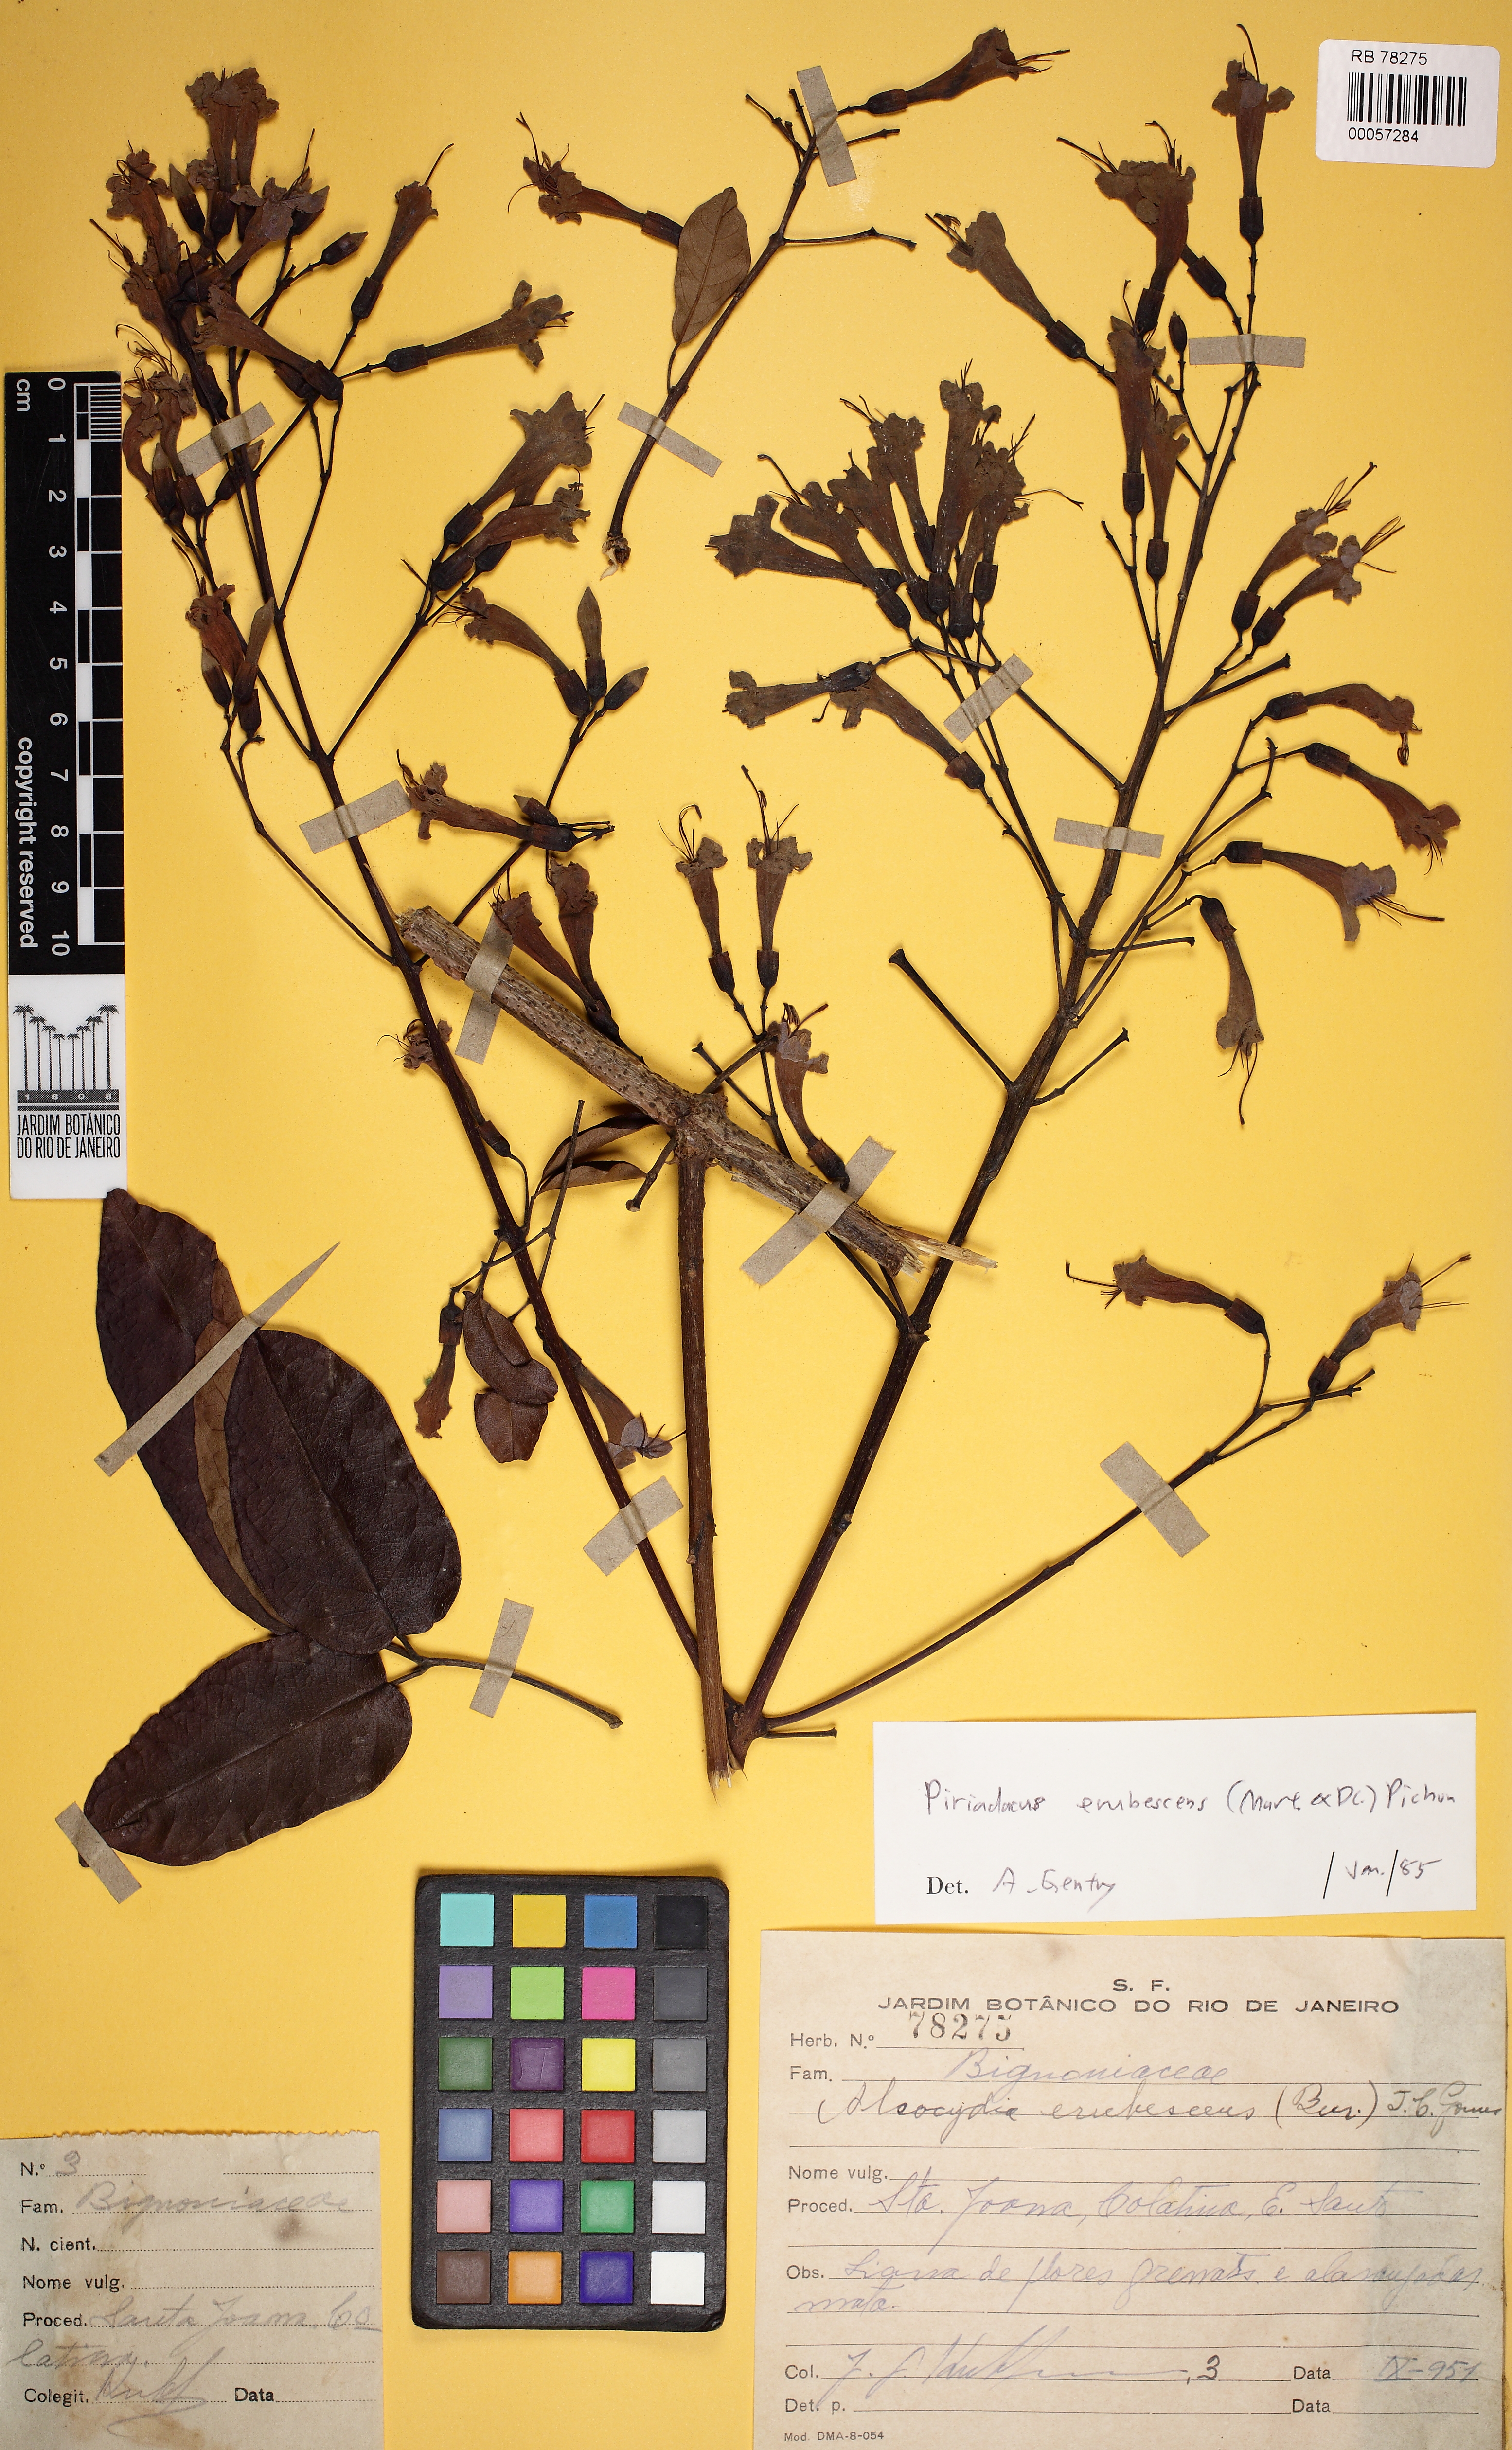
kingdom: Plantae
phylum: Tracheophyta
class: Magnoliopsida
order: Lamiales
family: Bignoniaceae
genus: Fridericia
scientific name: Fridericia erubescens
